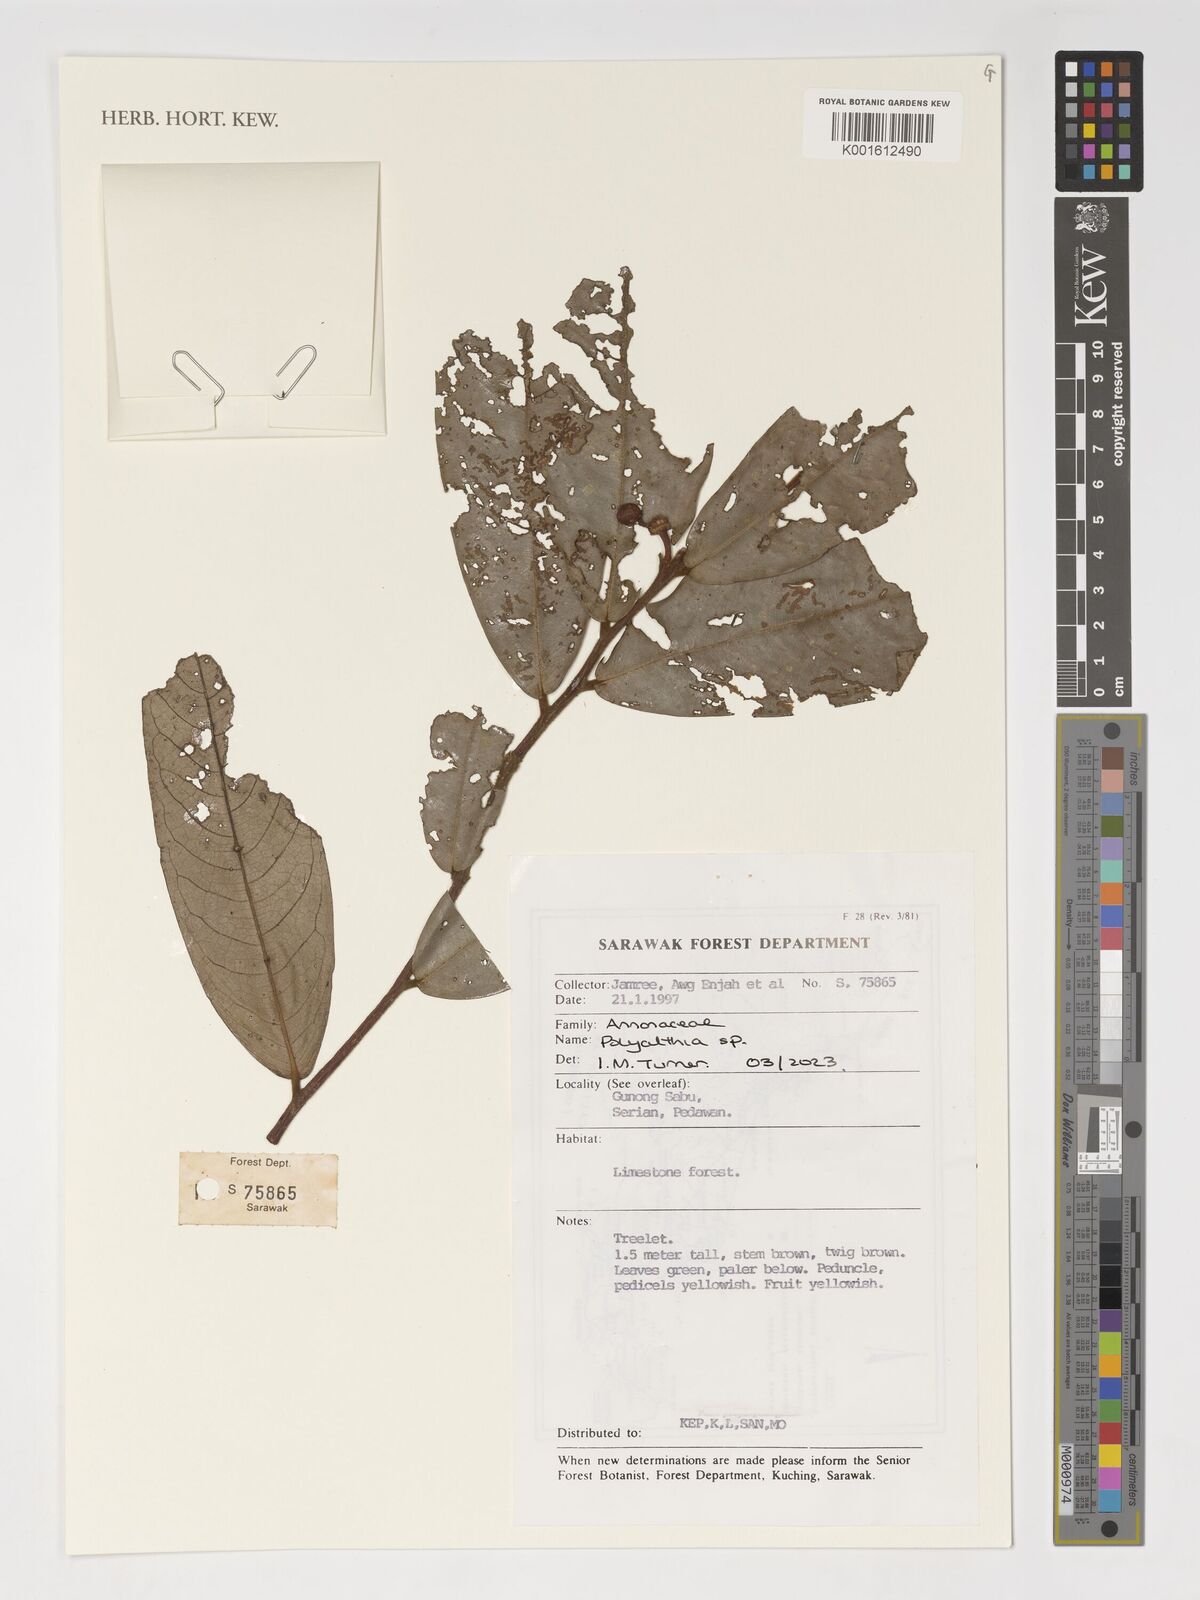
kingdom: Plantae
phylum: Tracheophyta
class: Magnoliopsida
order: Magnoliales
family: Annonaceae
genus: Polyalthia
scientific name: Polyalthia
